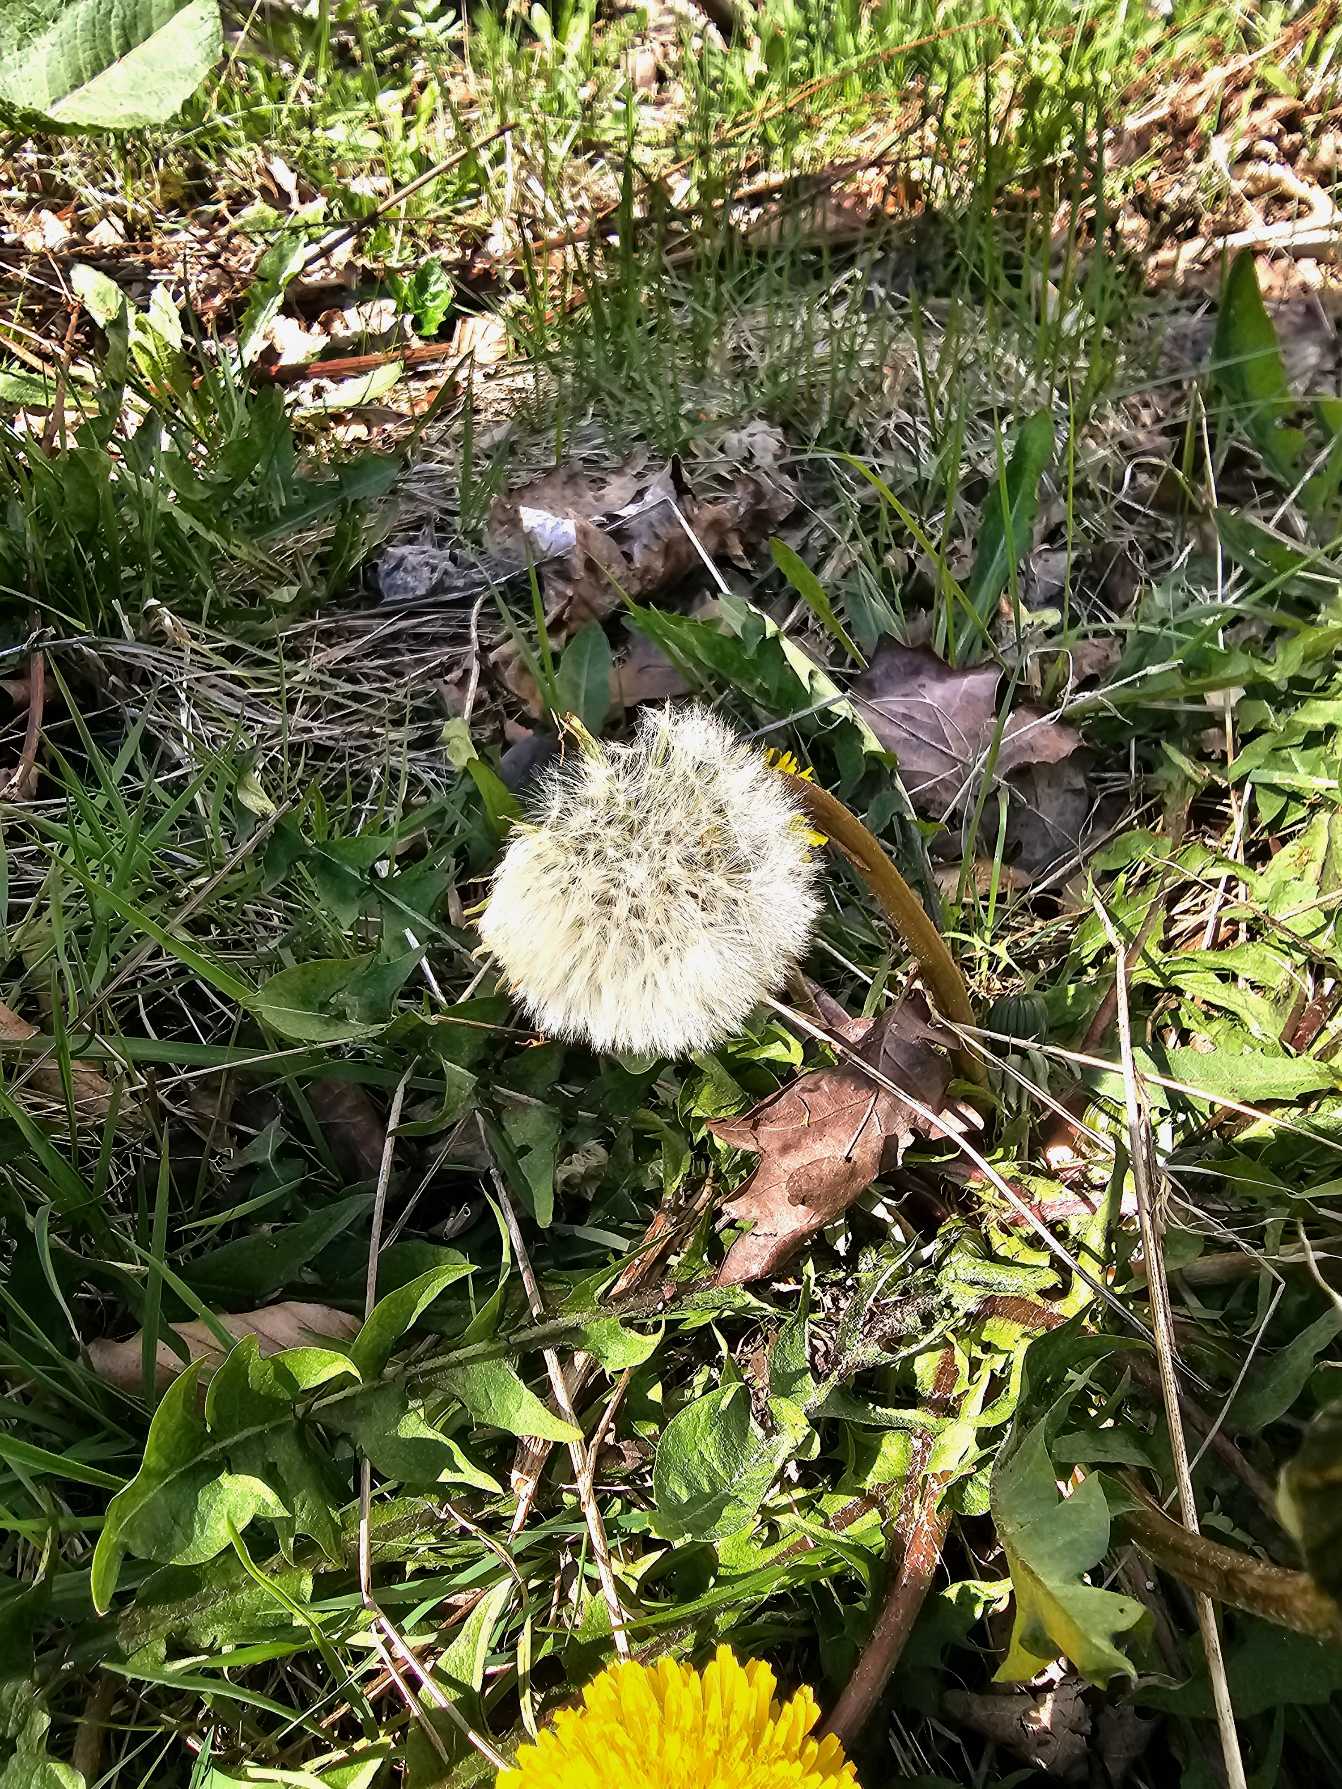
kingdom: Plantae
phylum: Tracheophyta
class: Magnoliopsida
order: Asterales
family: Asteraceae
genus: Taraxacum
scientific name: Taraxacum
